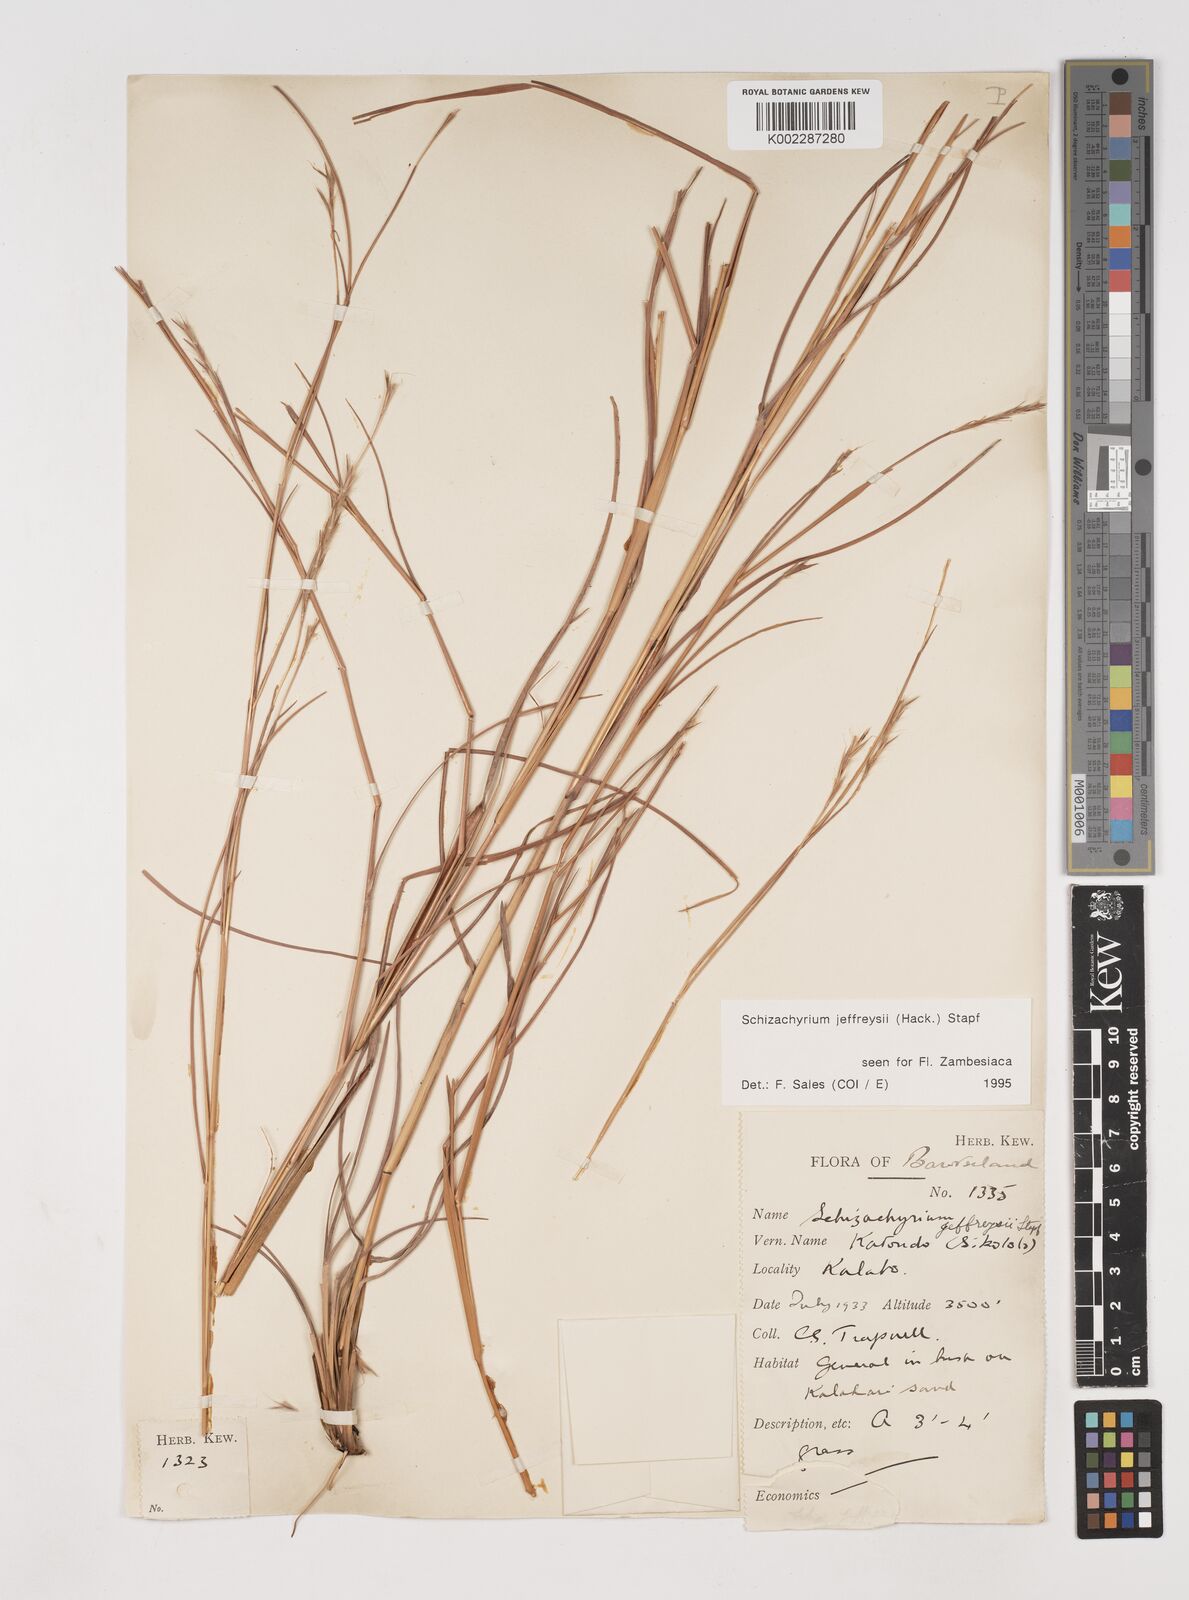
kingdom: Plantae
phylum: Tracheophyta
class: Liliopsida
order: Poales
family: Poaceae
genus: Schizachyrium
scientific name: Schizachyrium jeffreysii
